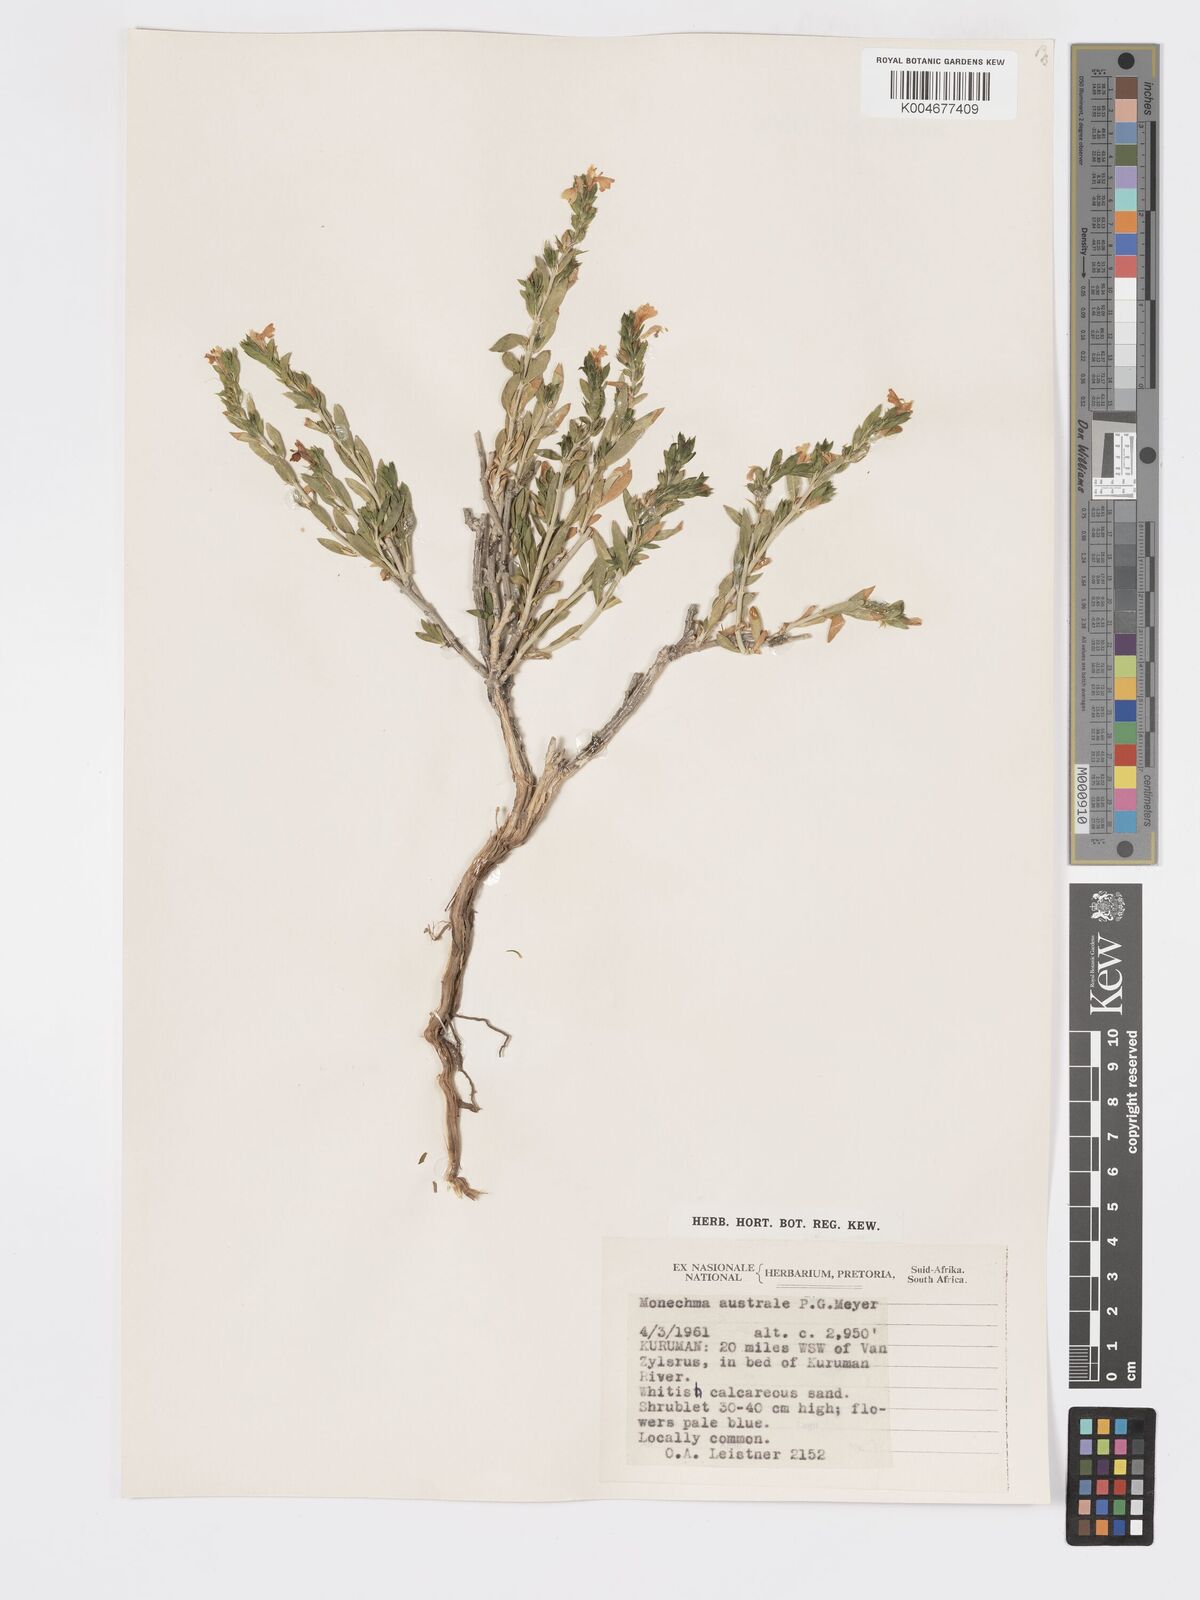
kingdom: Plantae
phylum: Tracheophyta
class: Magnoliopsida
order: Lamiales
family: Acanthaceae
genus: Pogonospermum
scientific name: Pogonospermum
